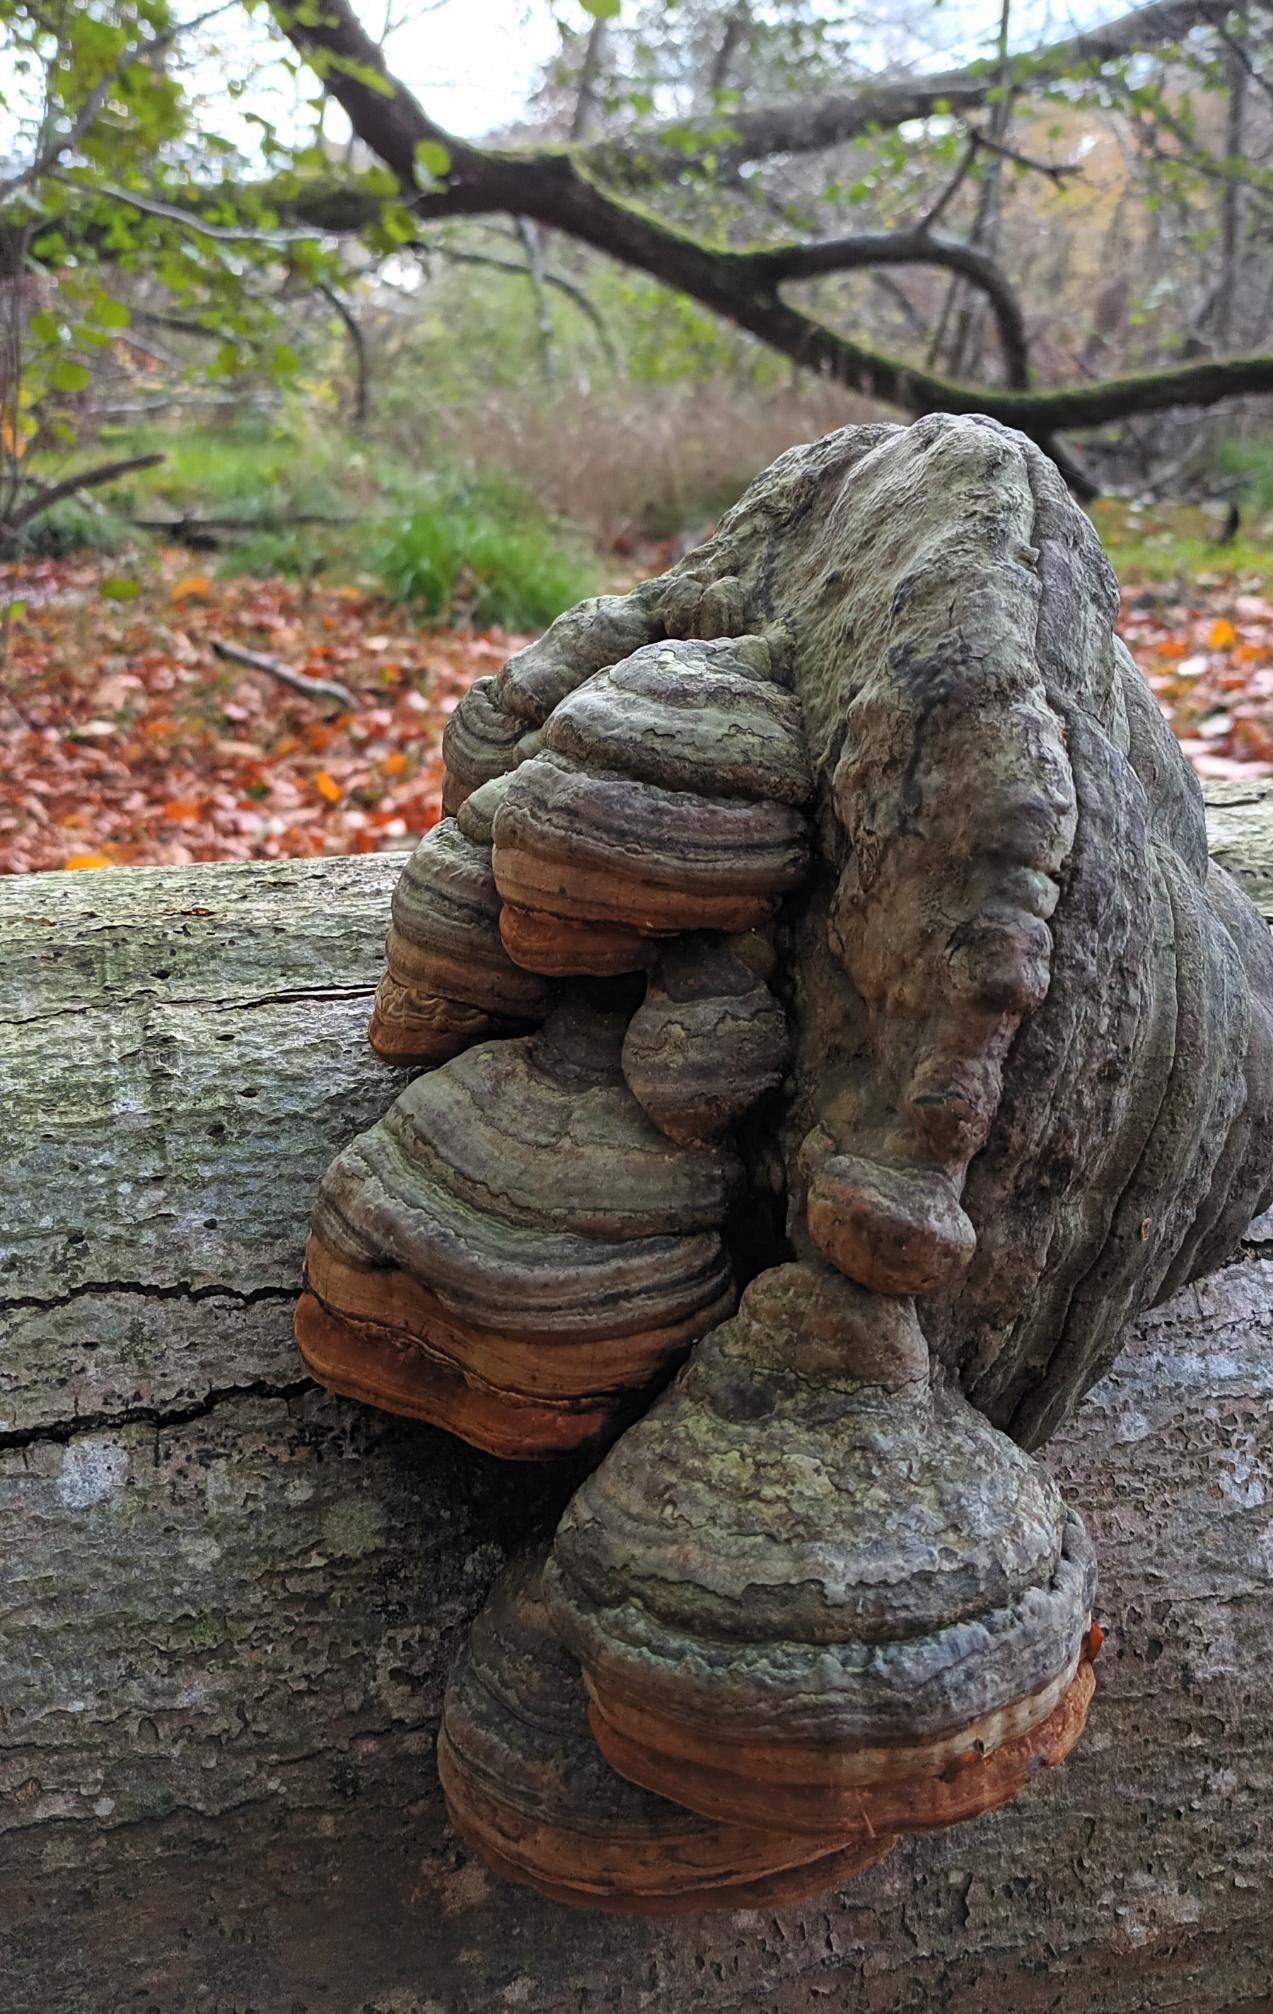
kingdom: Fungi
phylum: Basidiomycota
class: Agaricomycetes
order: Polyporales
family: Polyporaceae
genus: Fomes
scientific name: Fomes fomentarius
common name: Tøndersvamp
